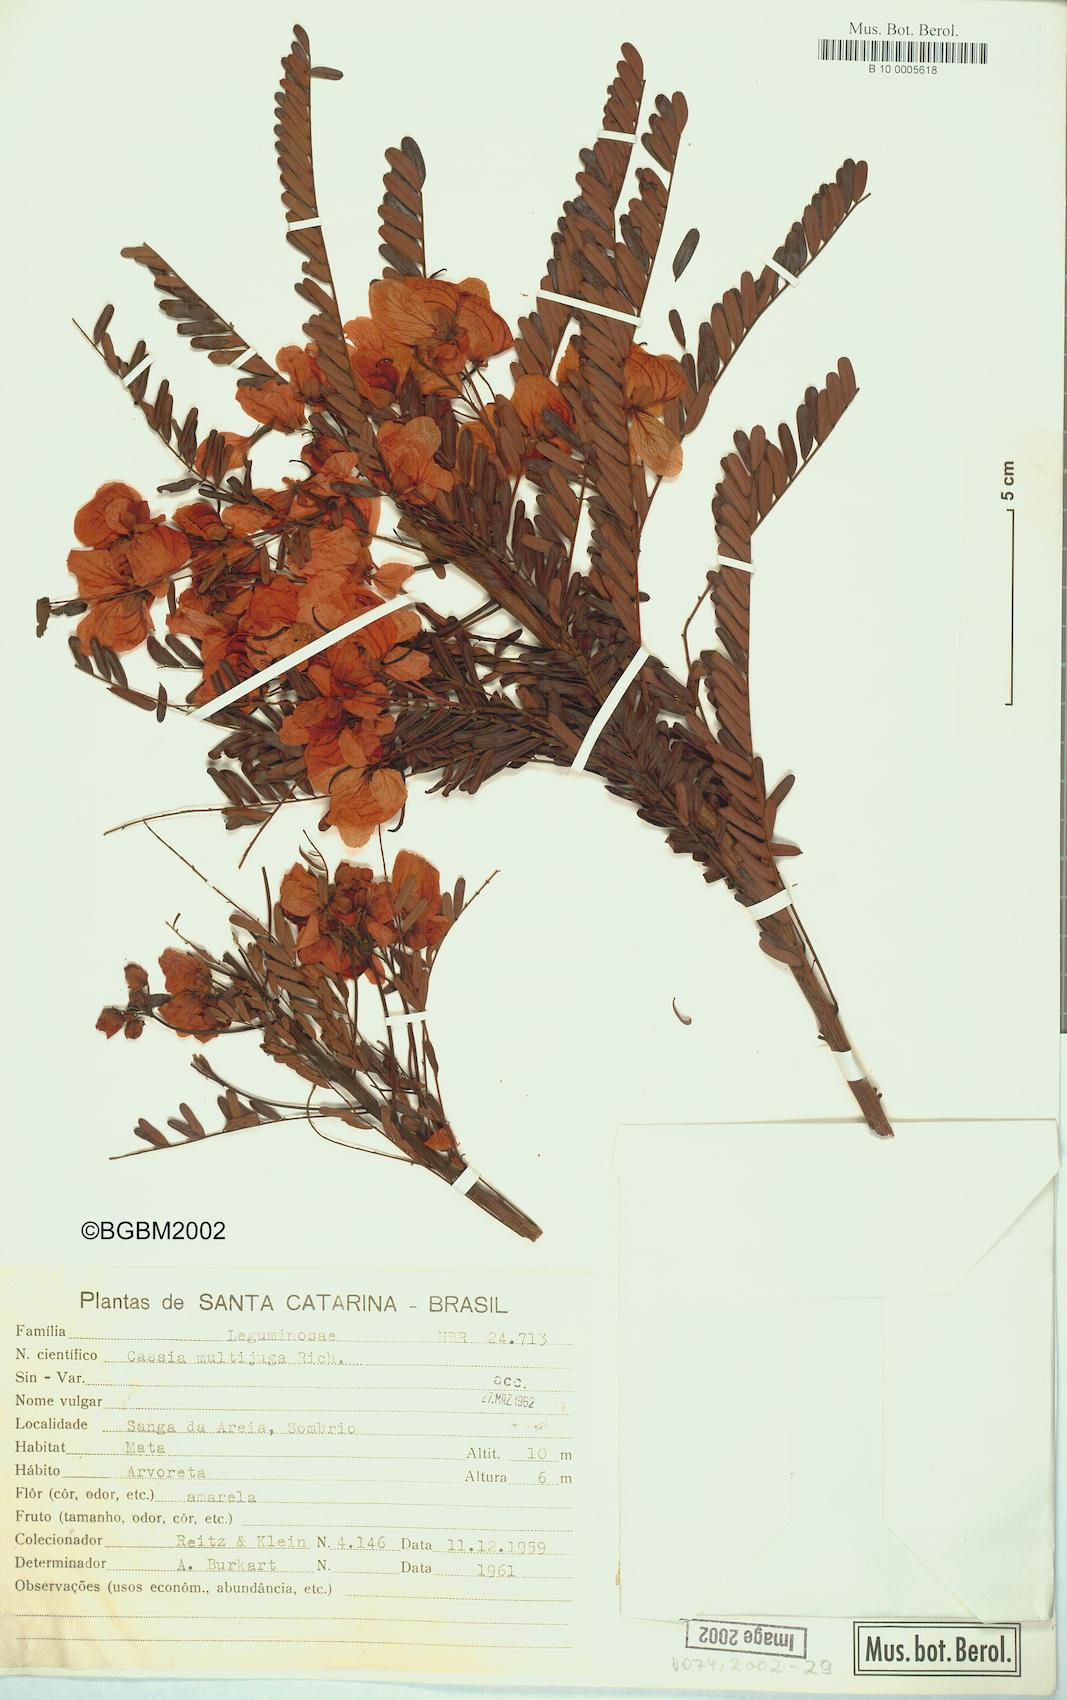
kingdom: Plantae
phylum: Tracheophyta
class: Magnoliopsida
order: Fabales
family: Fabaceae
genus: Senna
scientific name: Senna multijuga
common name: False sicklepod
